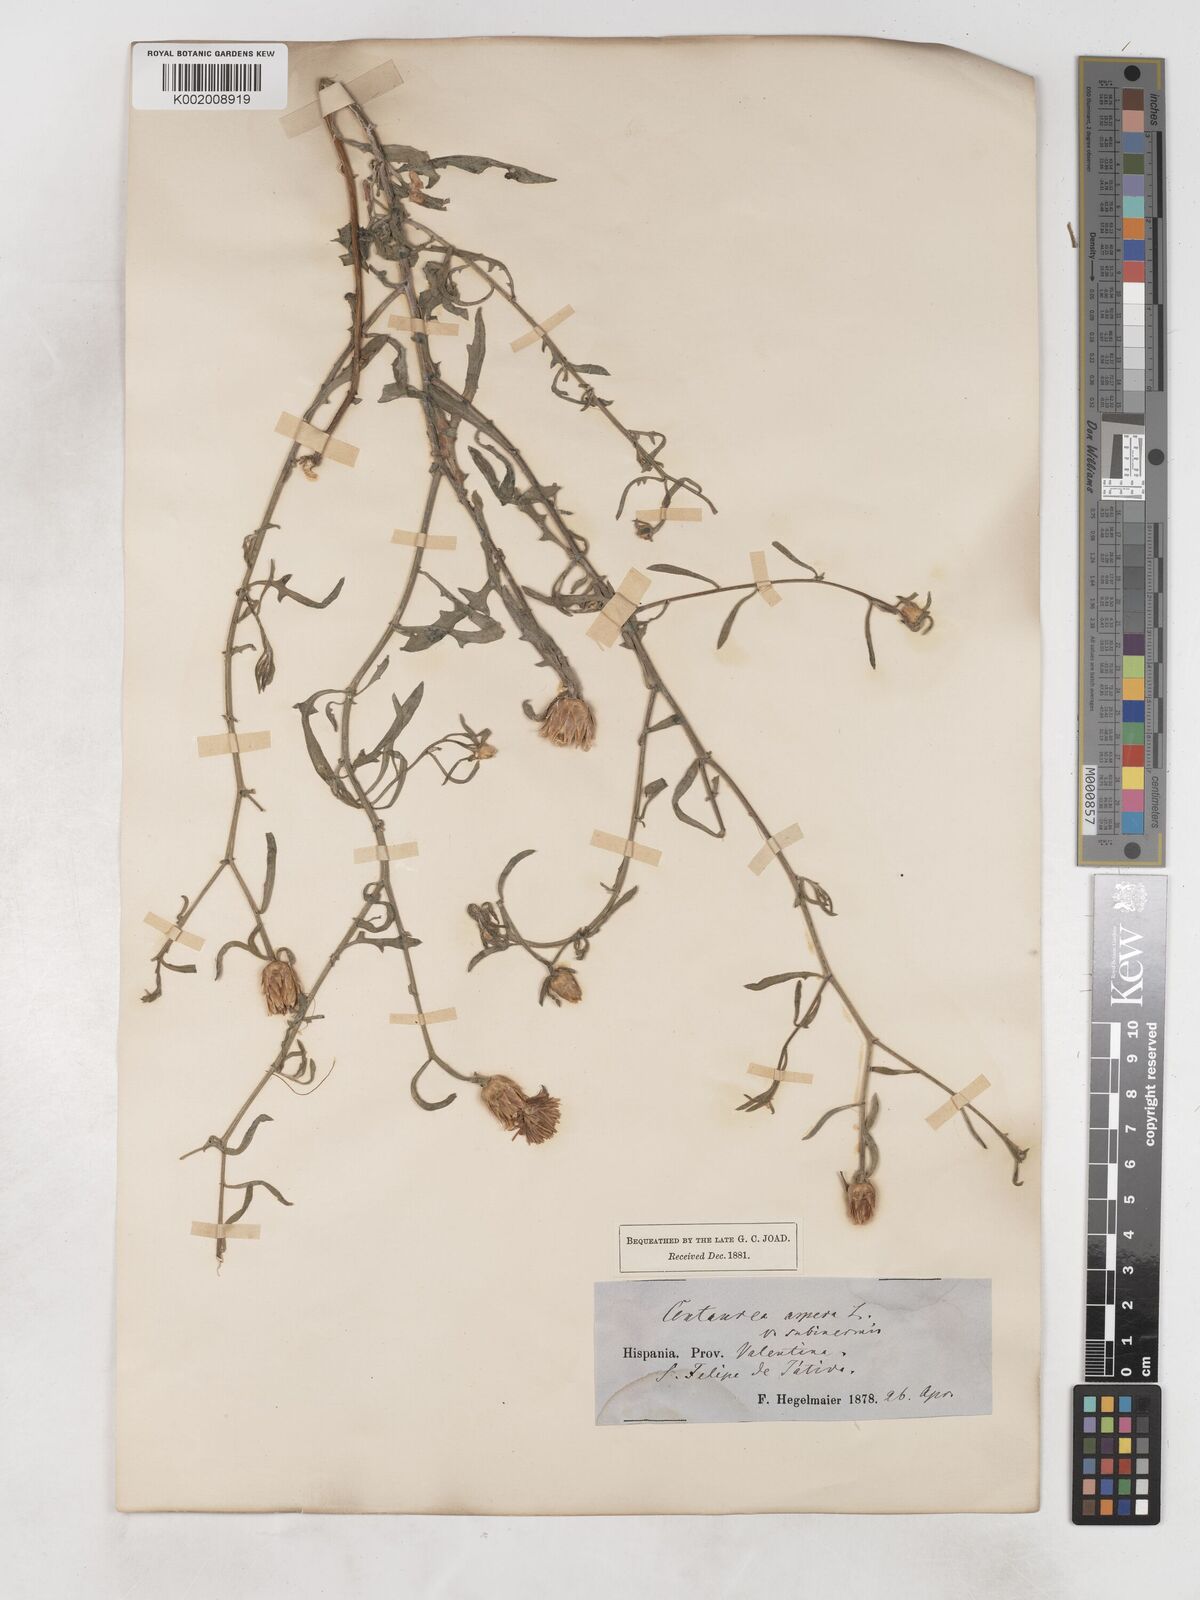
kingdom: Plantae
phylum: Tracheophyta
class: Magnoliopsida
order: Asterales
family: Asteraceae
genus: Centaurea
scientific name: Centaurea aspera
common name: Rough star-thistle
